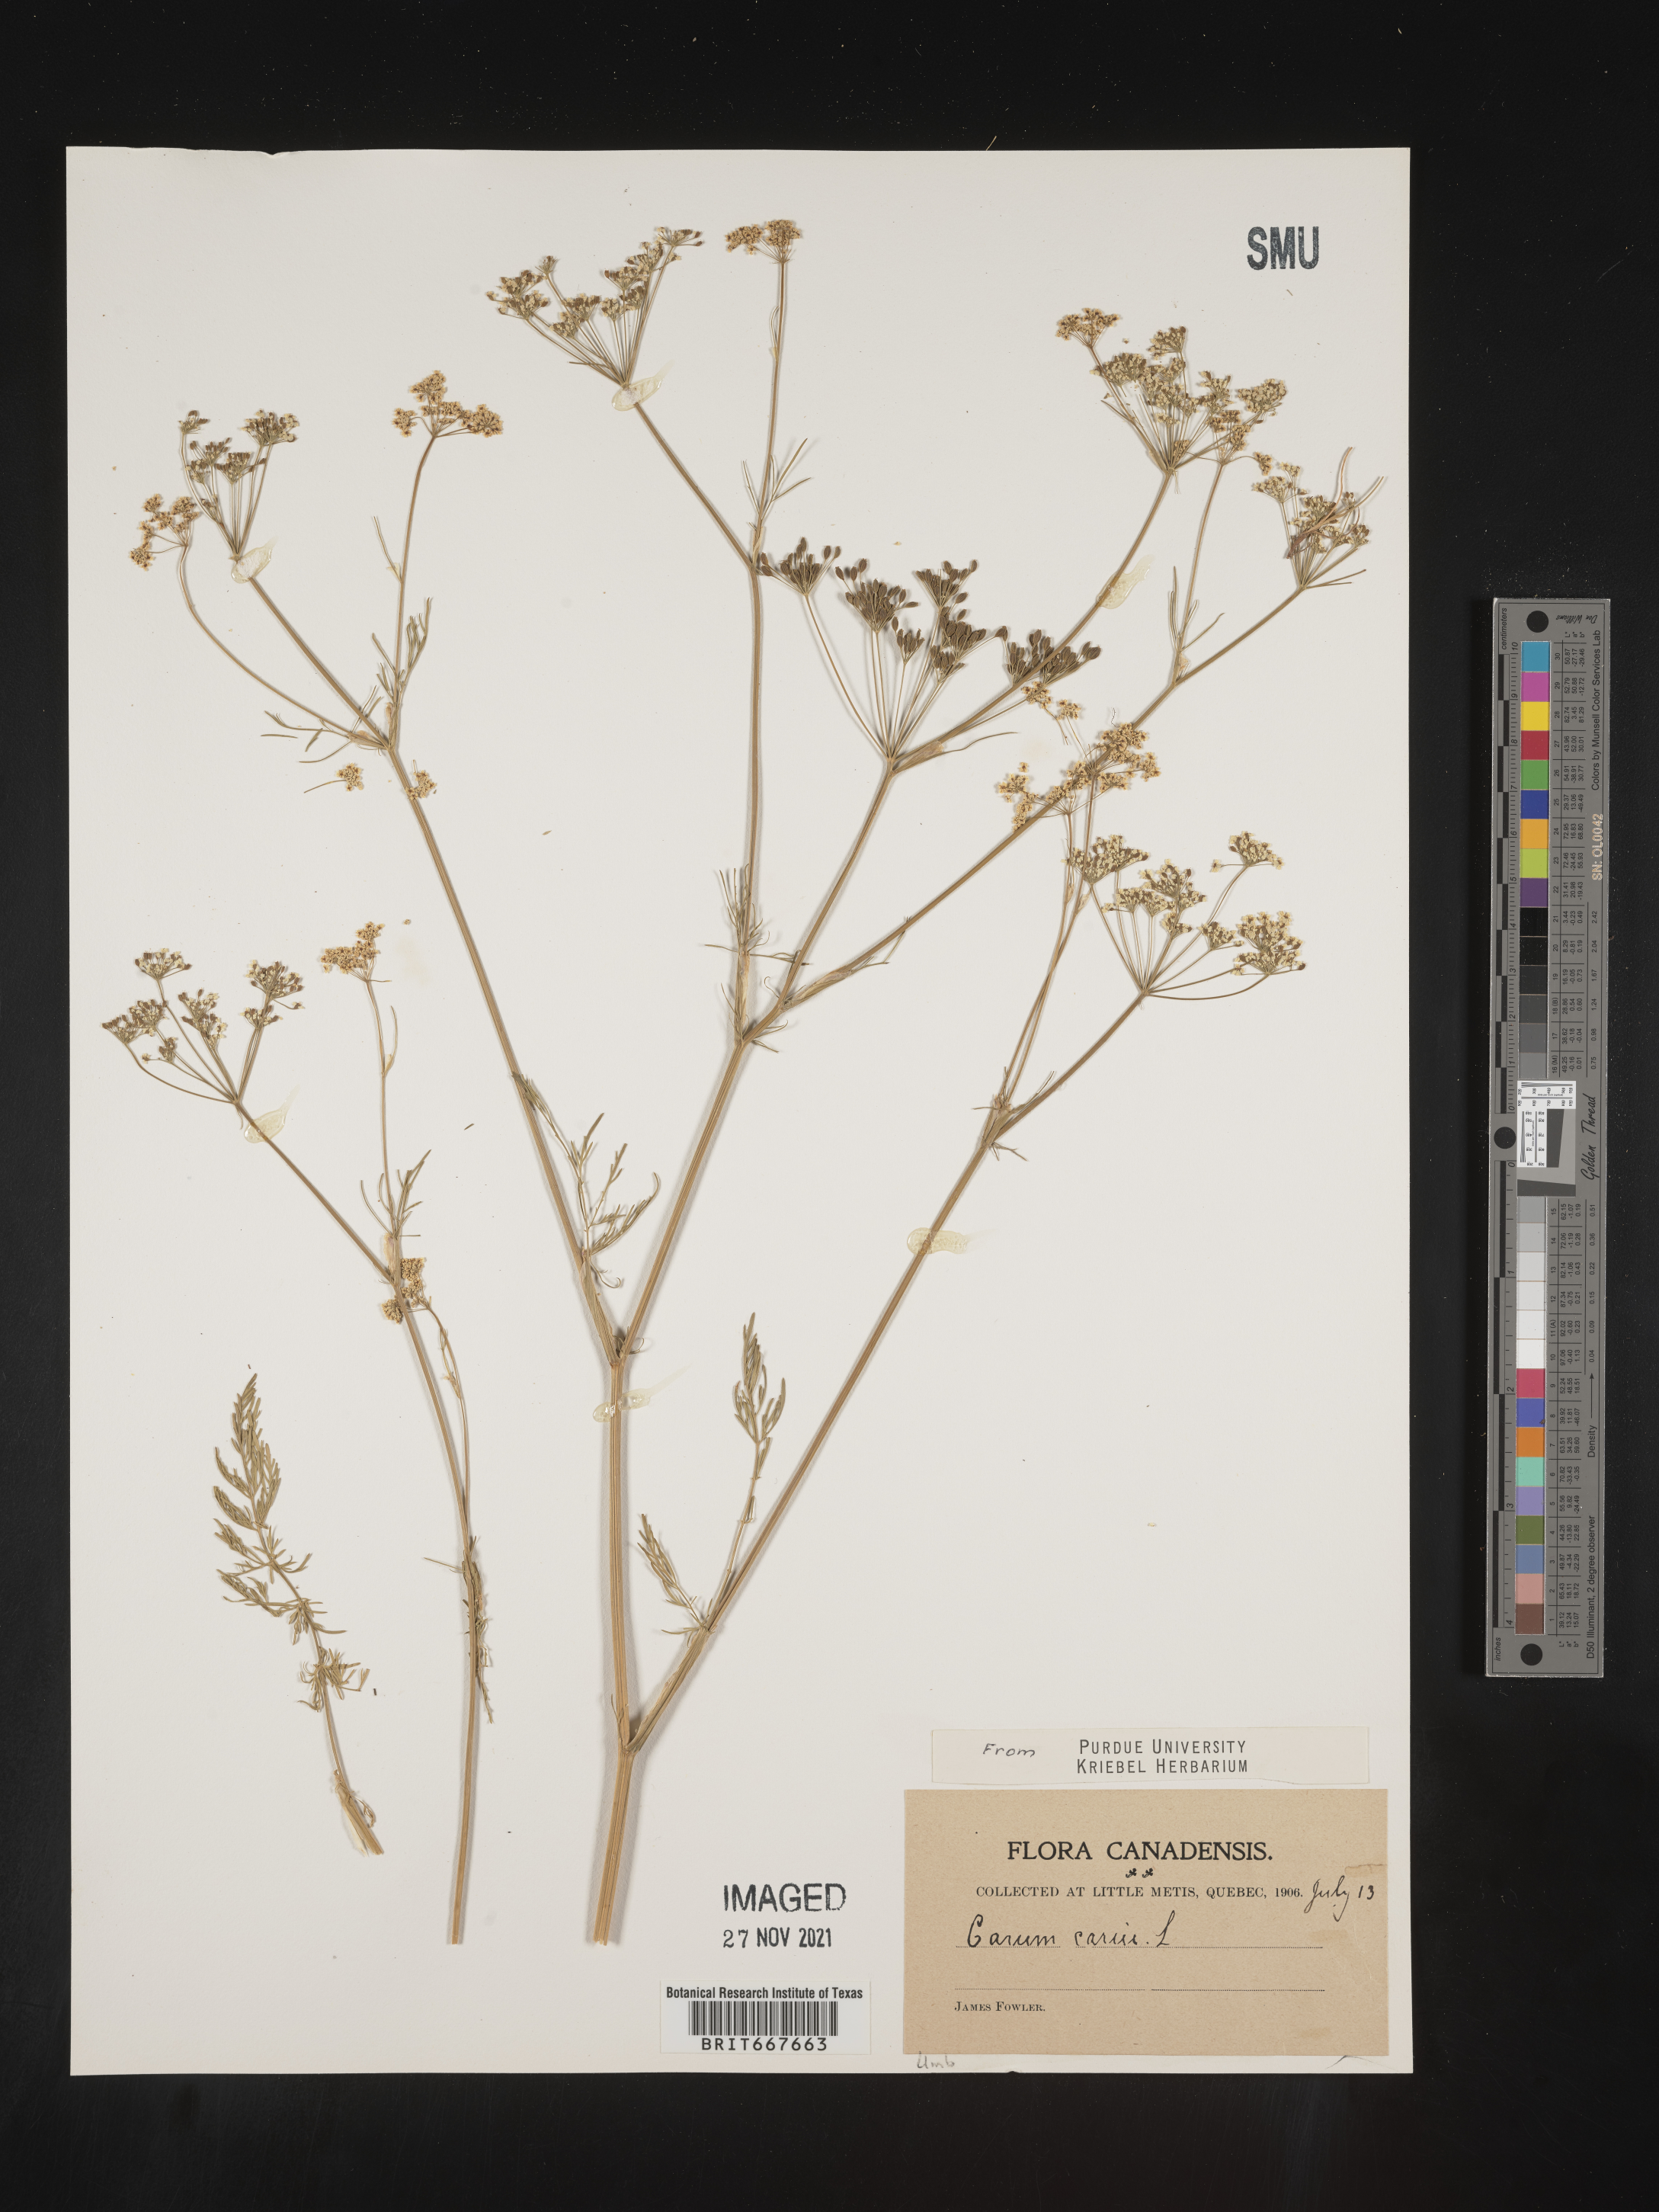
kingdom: Plantae
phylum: Tracheophyta
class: Magnoliopsida
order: Apiales
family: Apiaceae
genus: Carum
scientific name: Carum
